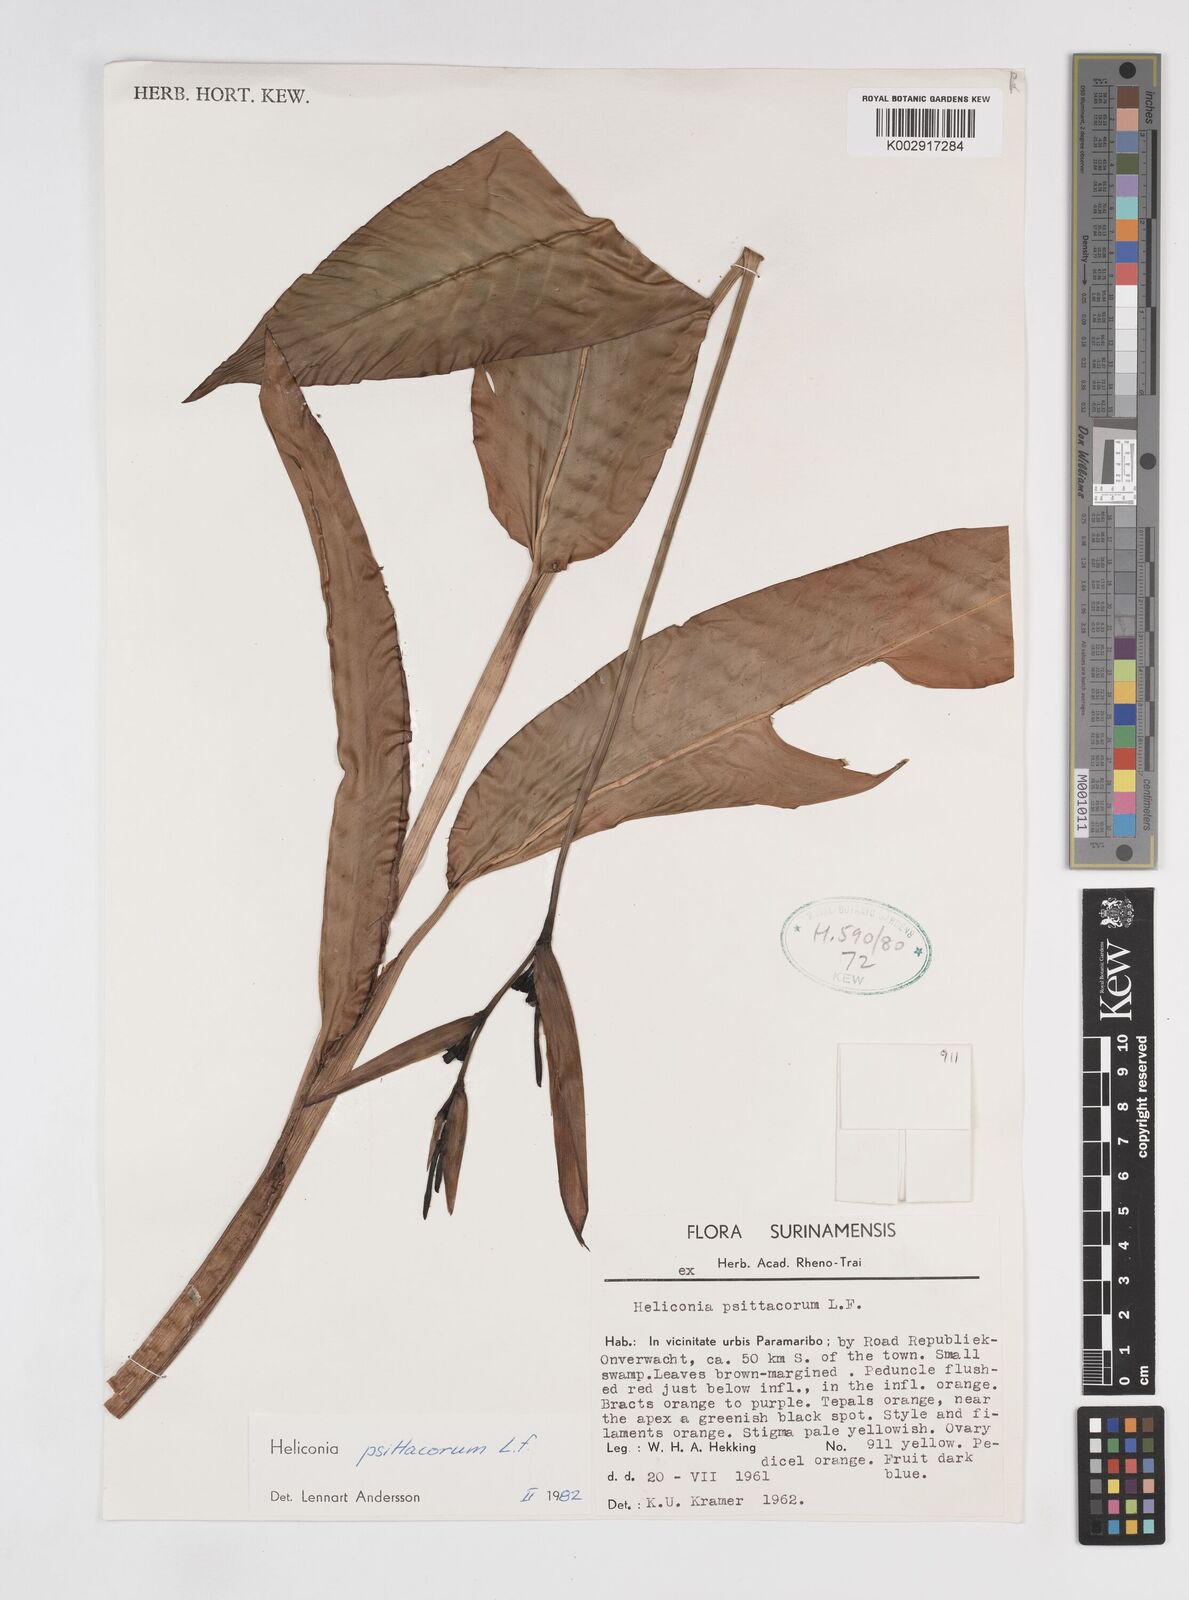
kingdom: Plantae
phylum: Tracheophyta
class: Liliopsida
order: Zingiberales
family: Heliconiaceae
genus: Heliconia
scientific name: Heliconia psittacorum
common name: Parrot's-flower
